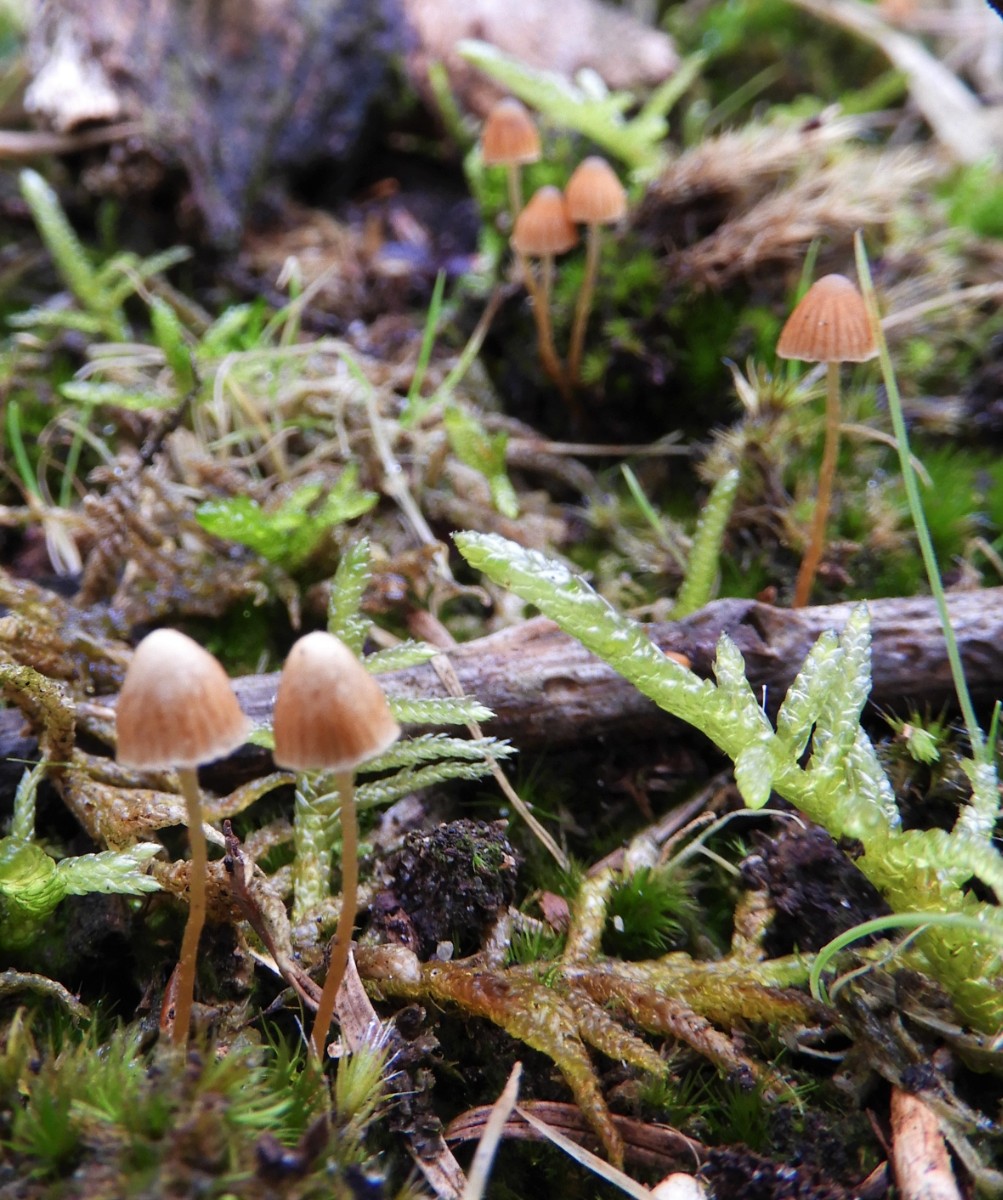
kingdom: Fungi
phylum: Basidiomycota
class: Agaricomycetes
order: Agaricales
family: Hymenogastraceae
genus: Galerina
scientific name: Galerina
